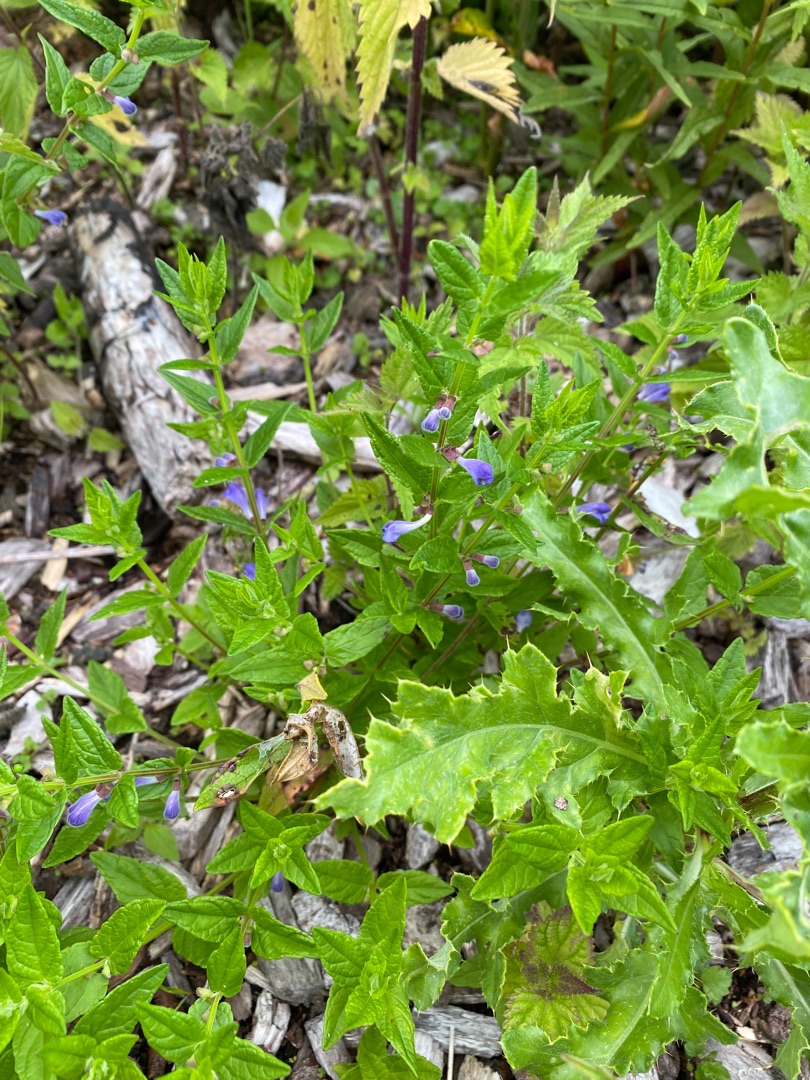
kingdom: Plantae
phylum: Tracheophyta
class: Magnoliopsida
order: Lamiales
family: Lamiaceae
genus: Scutellaria
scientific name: Scutellaria galericulata
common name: Almindelig skjolddrager
